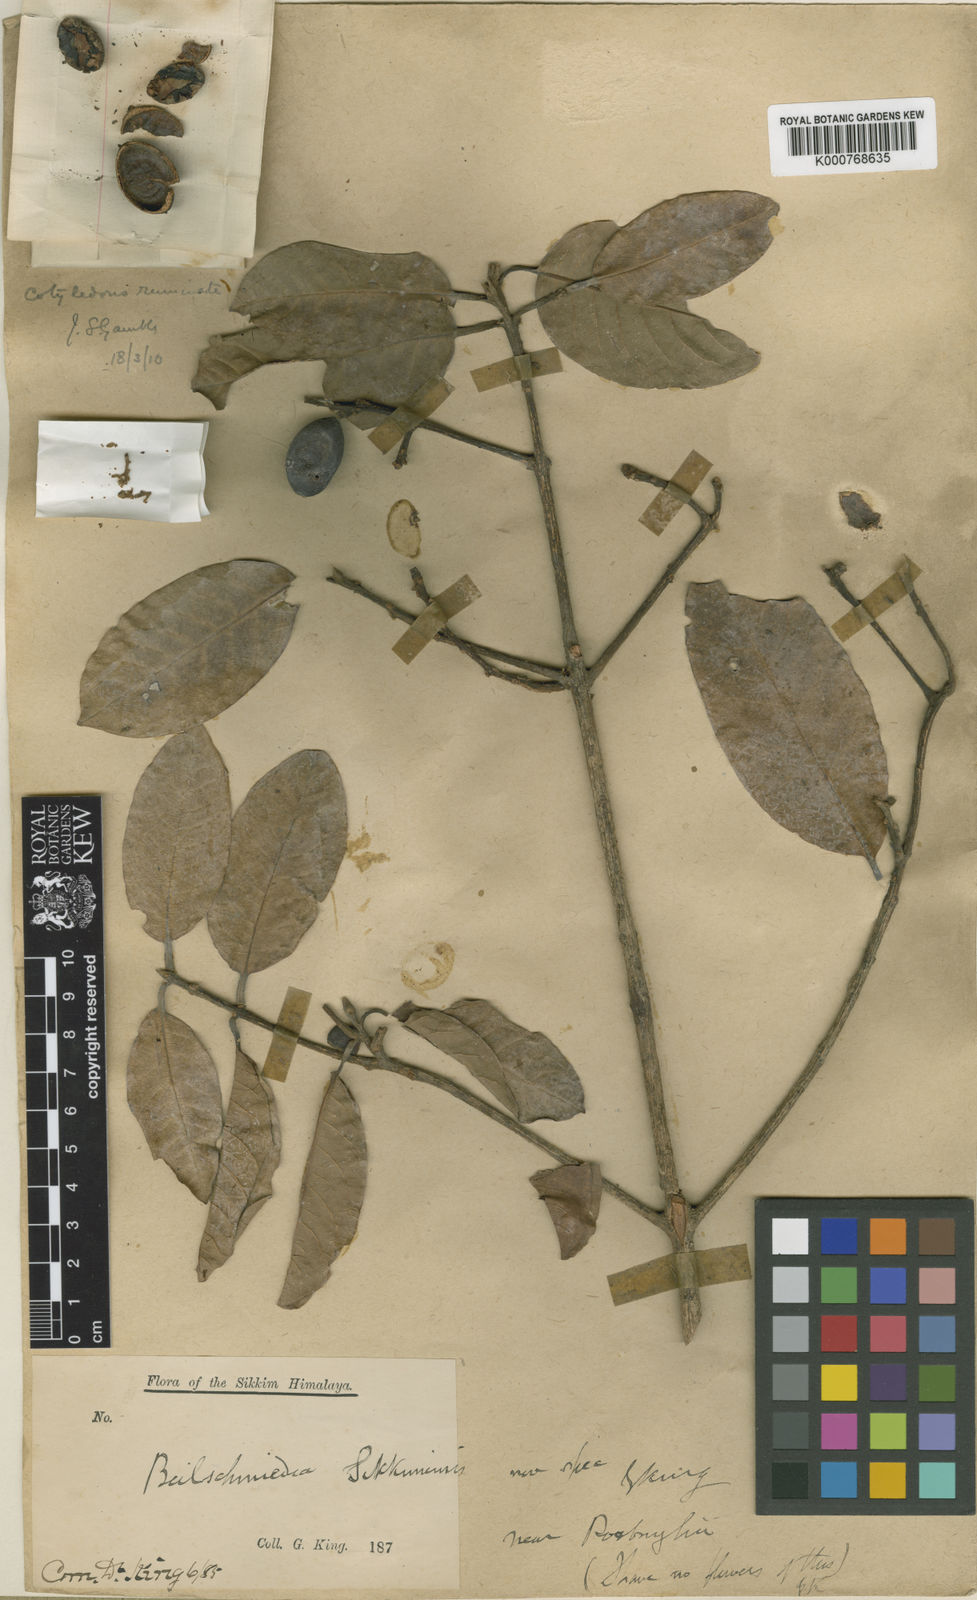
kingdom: Plantae
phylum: Tracheophyta
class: Magnoliopsida
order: Laurales
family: Lauraceae
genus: Beilschmiedia
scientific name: Beilschmiedia sikkimensis
